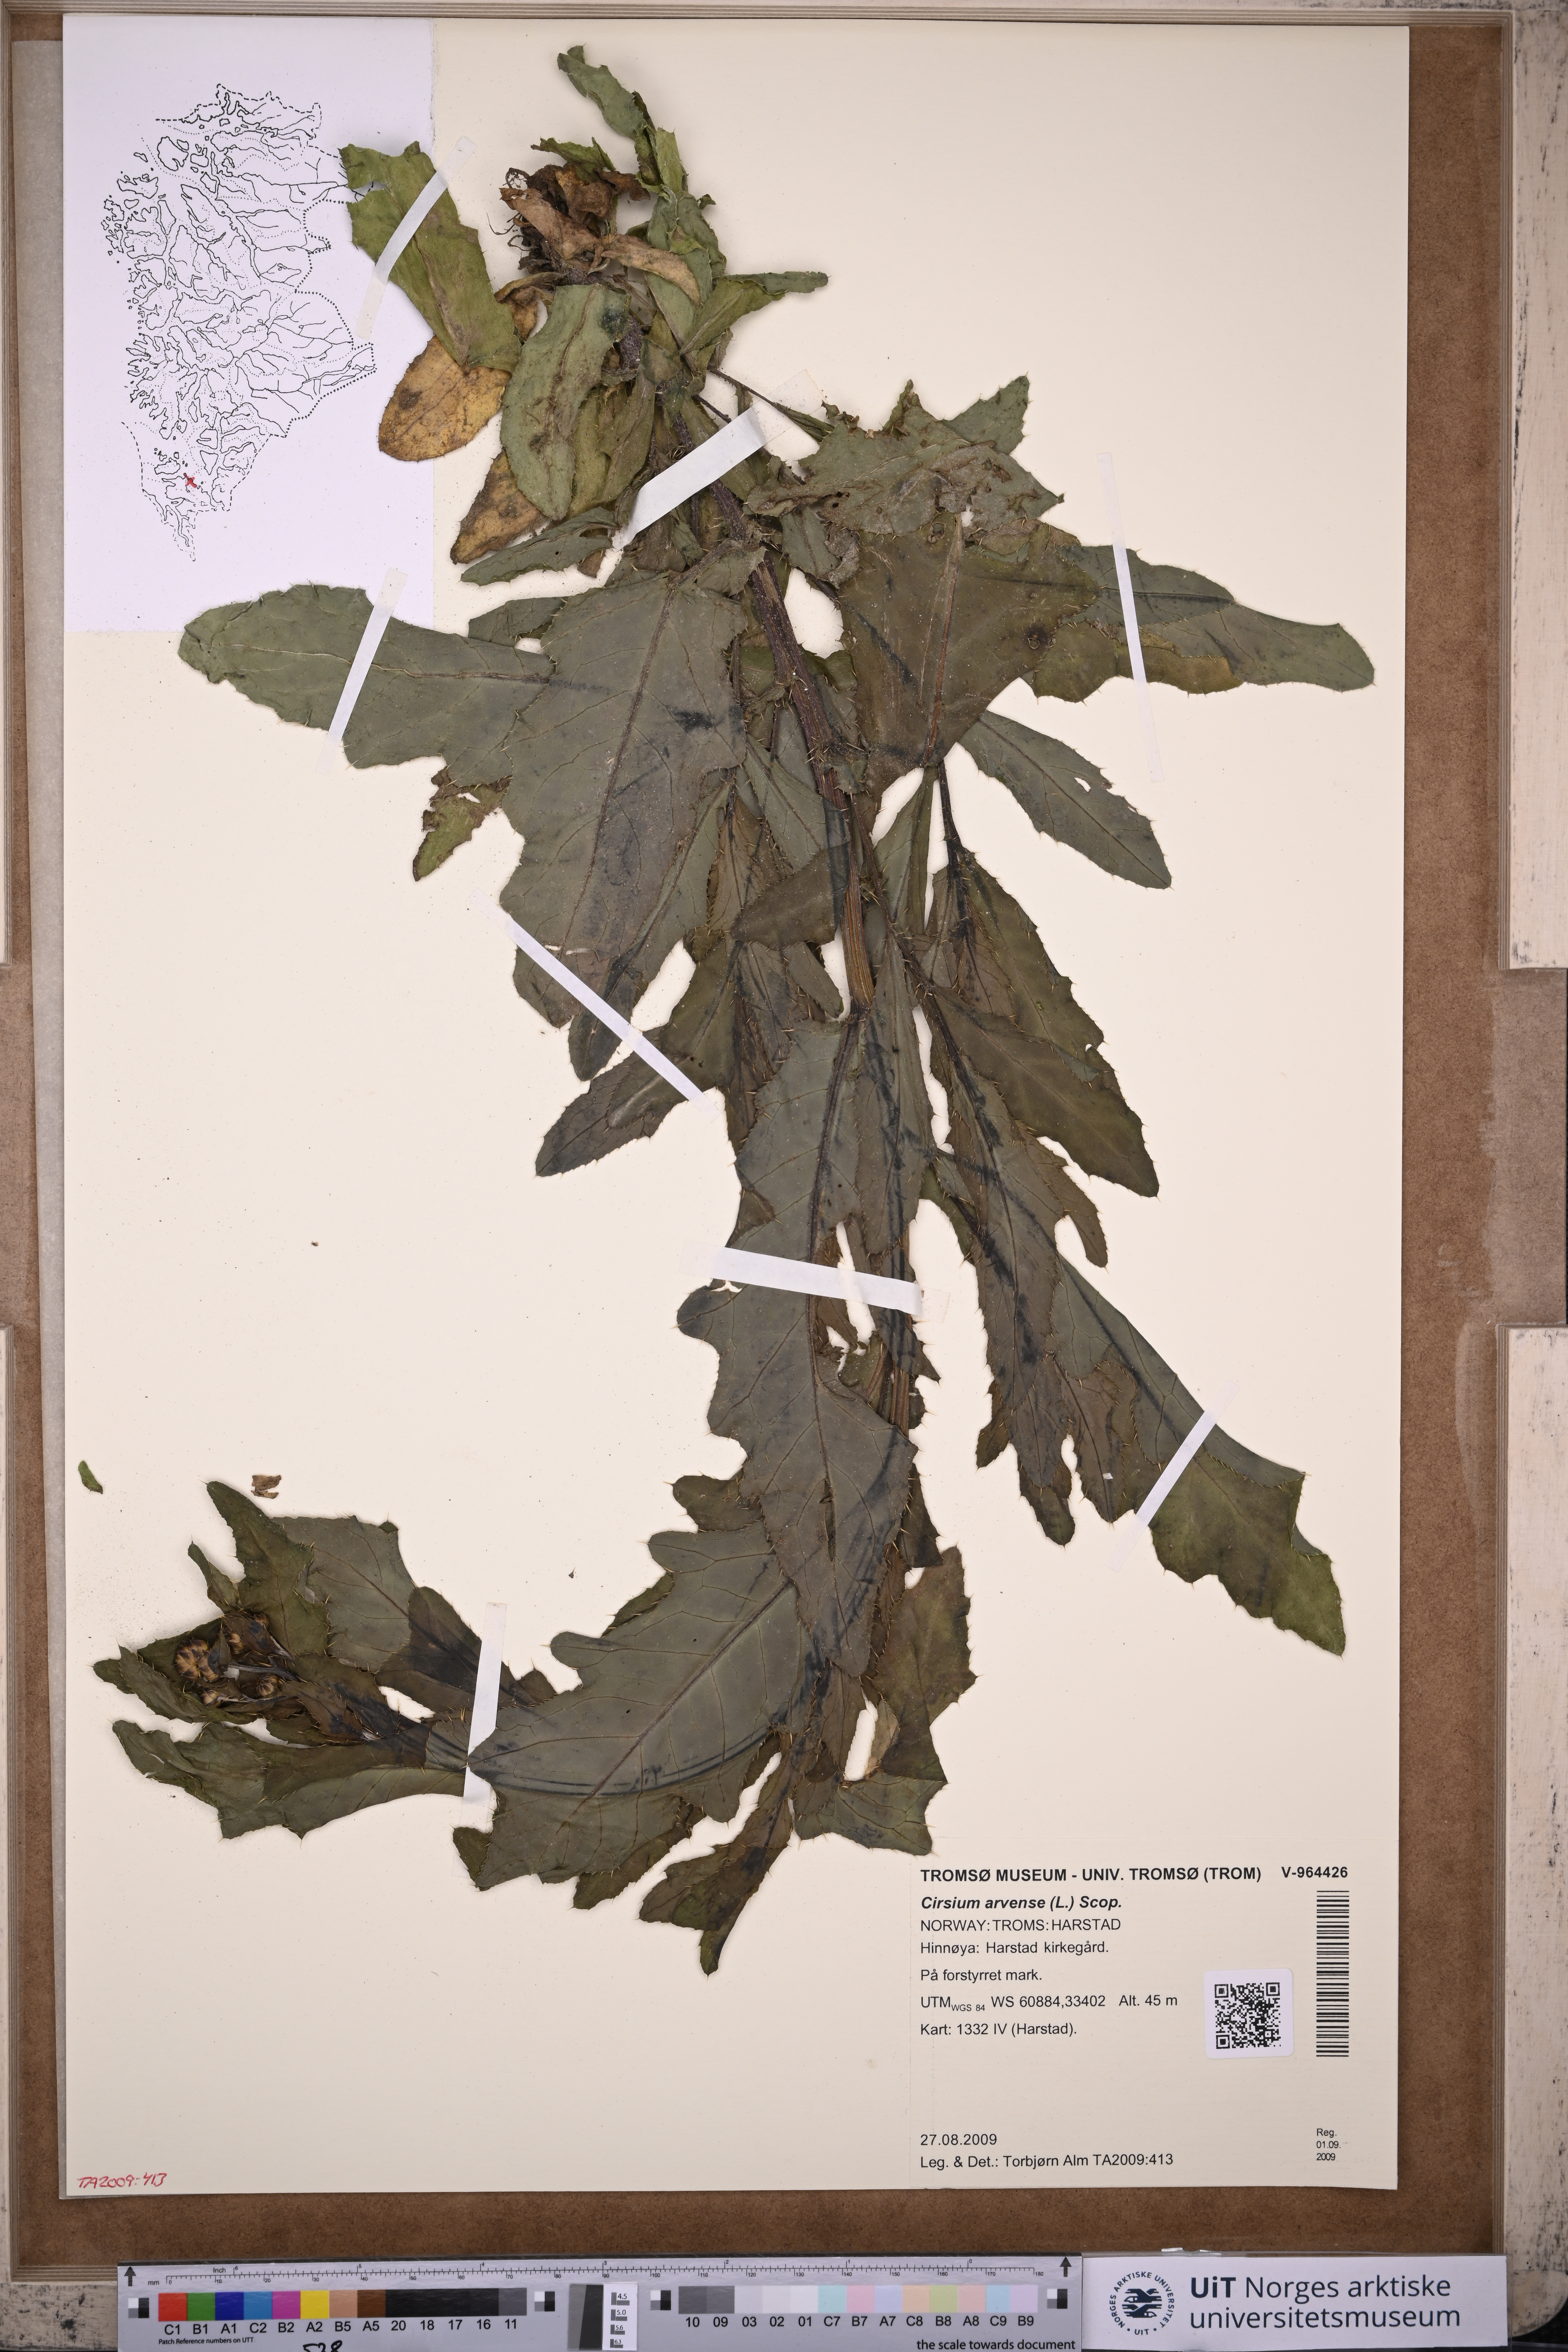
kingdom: Plantae
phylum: Tracheophyta
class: Magnoliopsida
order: Asterales
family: Asteraceae
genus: Cirsium
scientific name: Cirsium arvense
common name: Creeping thistle
